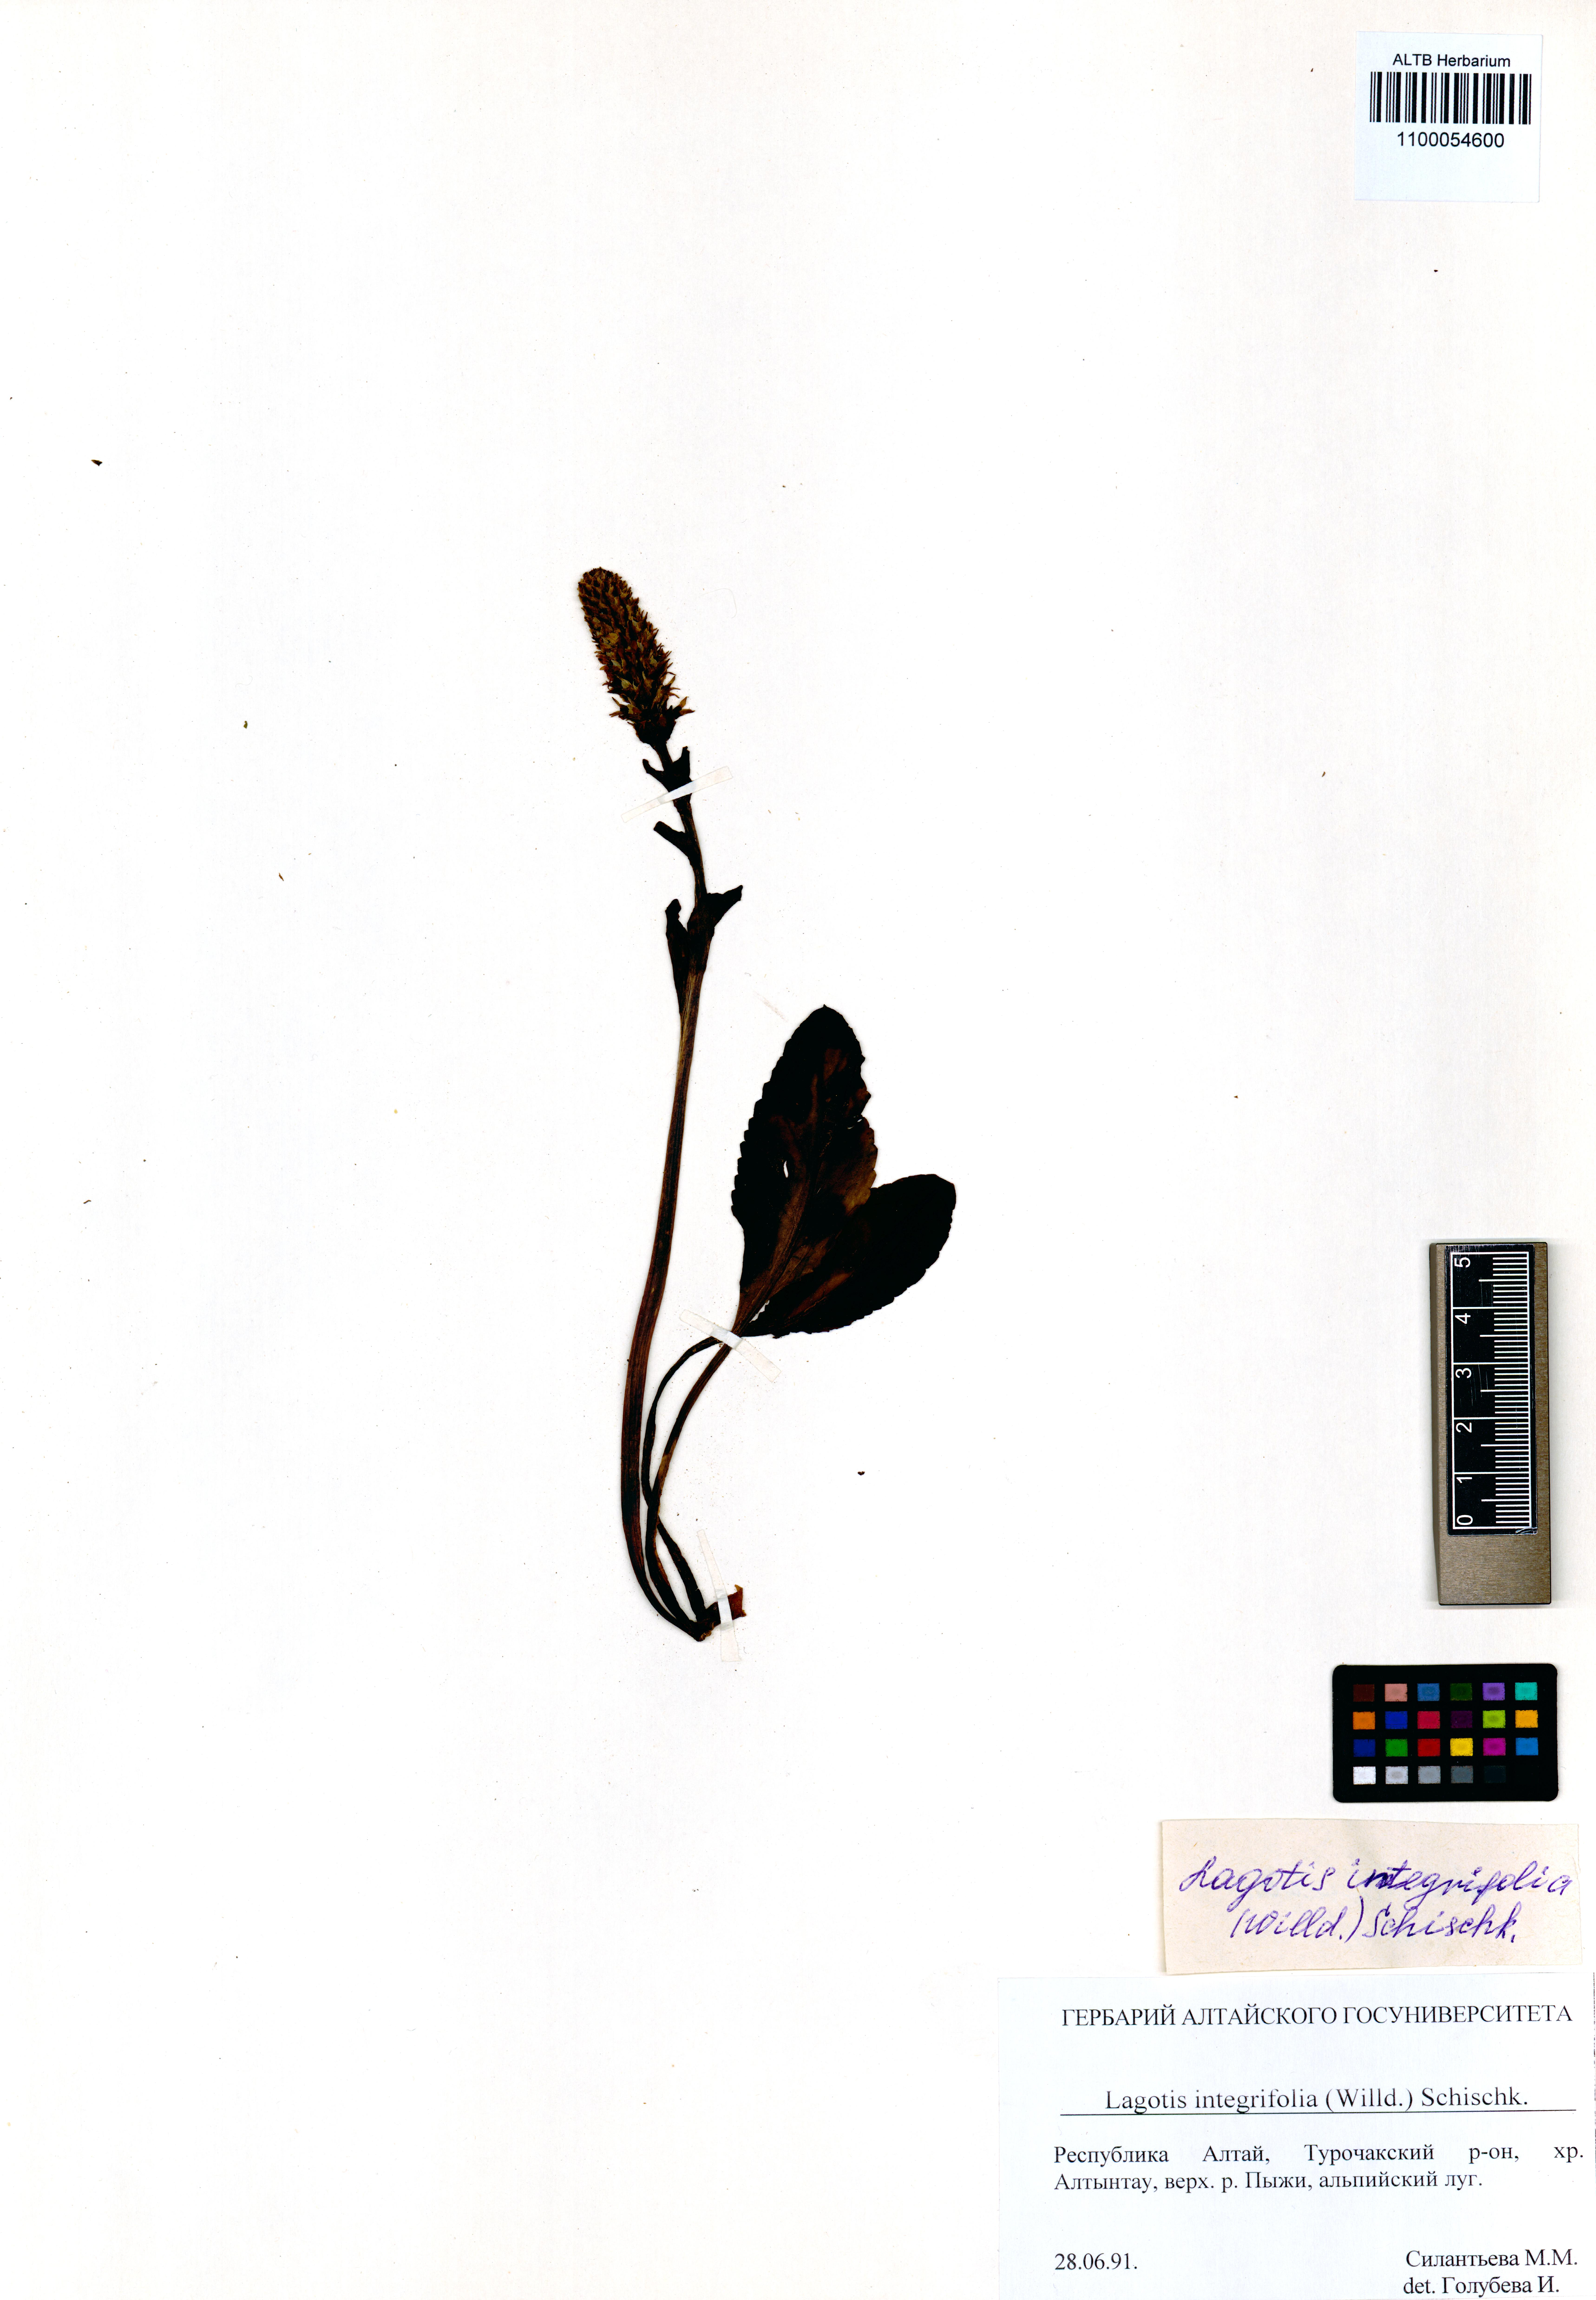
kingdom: Plantae
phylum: Tracheophyta
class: Magnoliopsida
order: Lamiales
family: Plantaginaceae
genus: Lagotis
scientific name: Lagotis integrifolia
